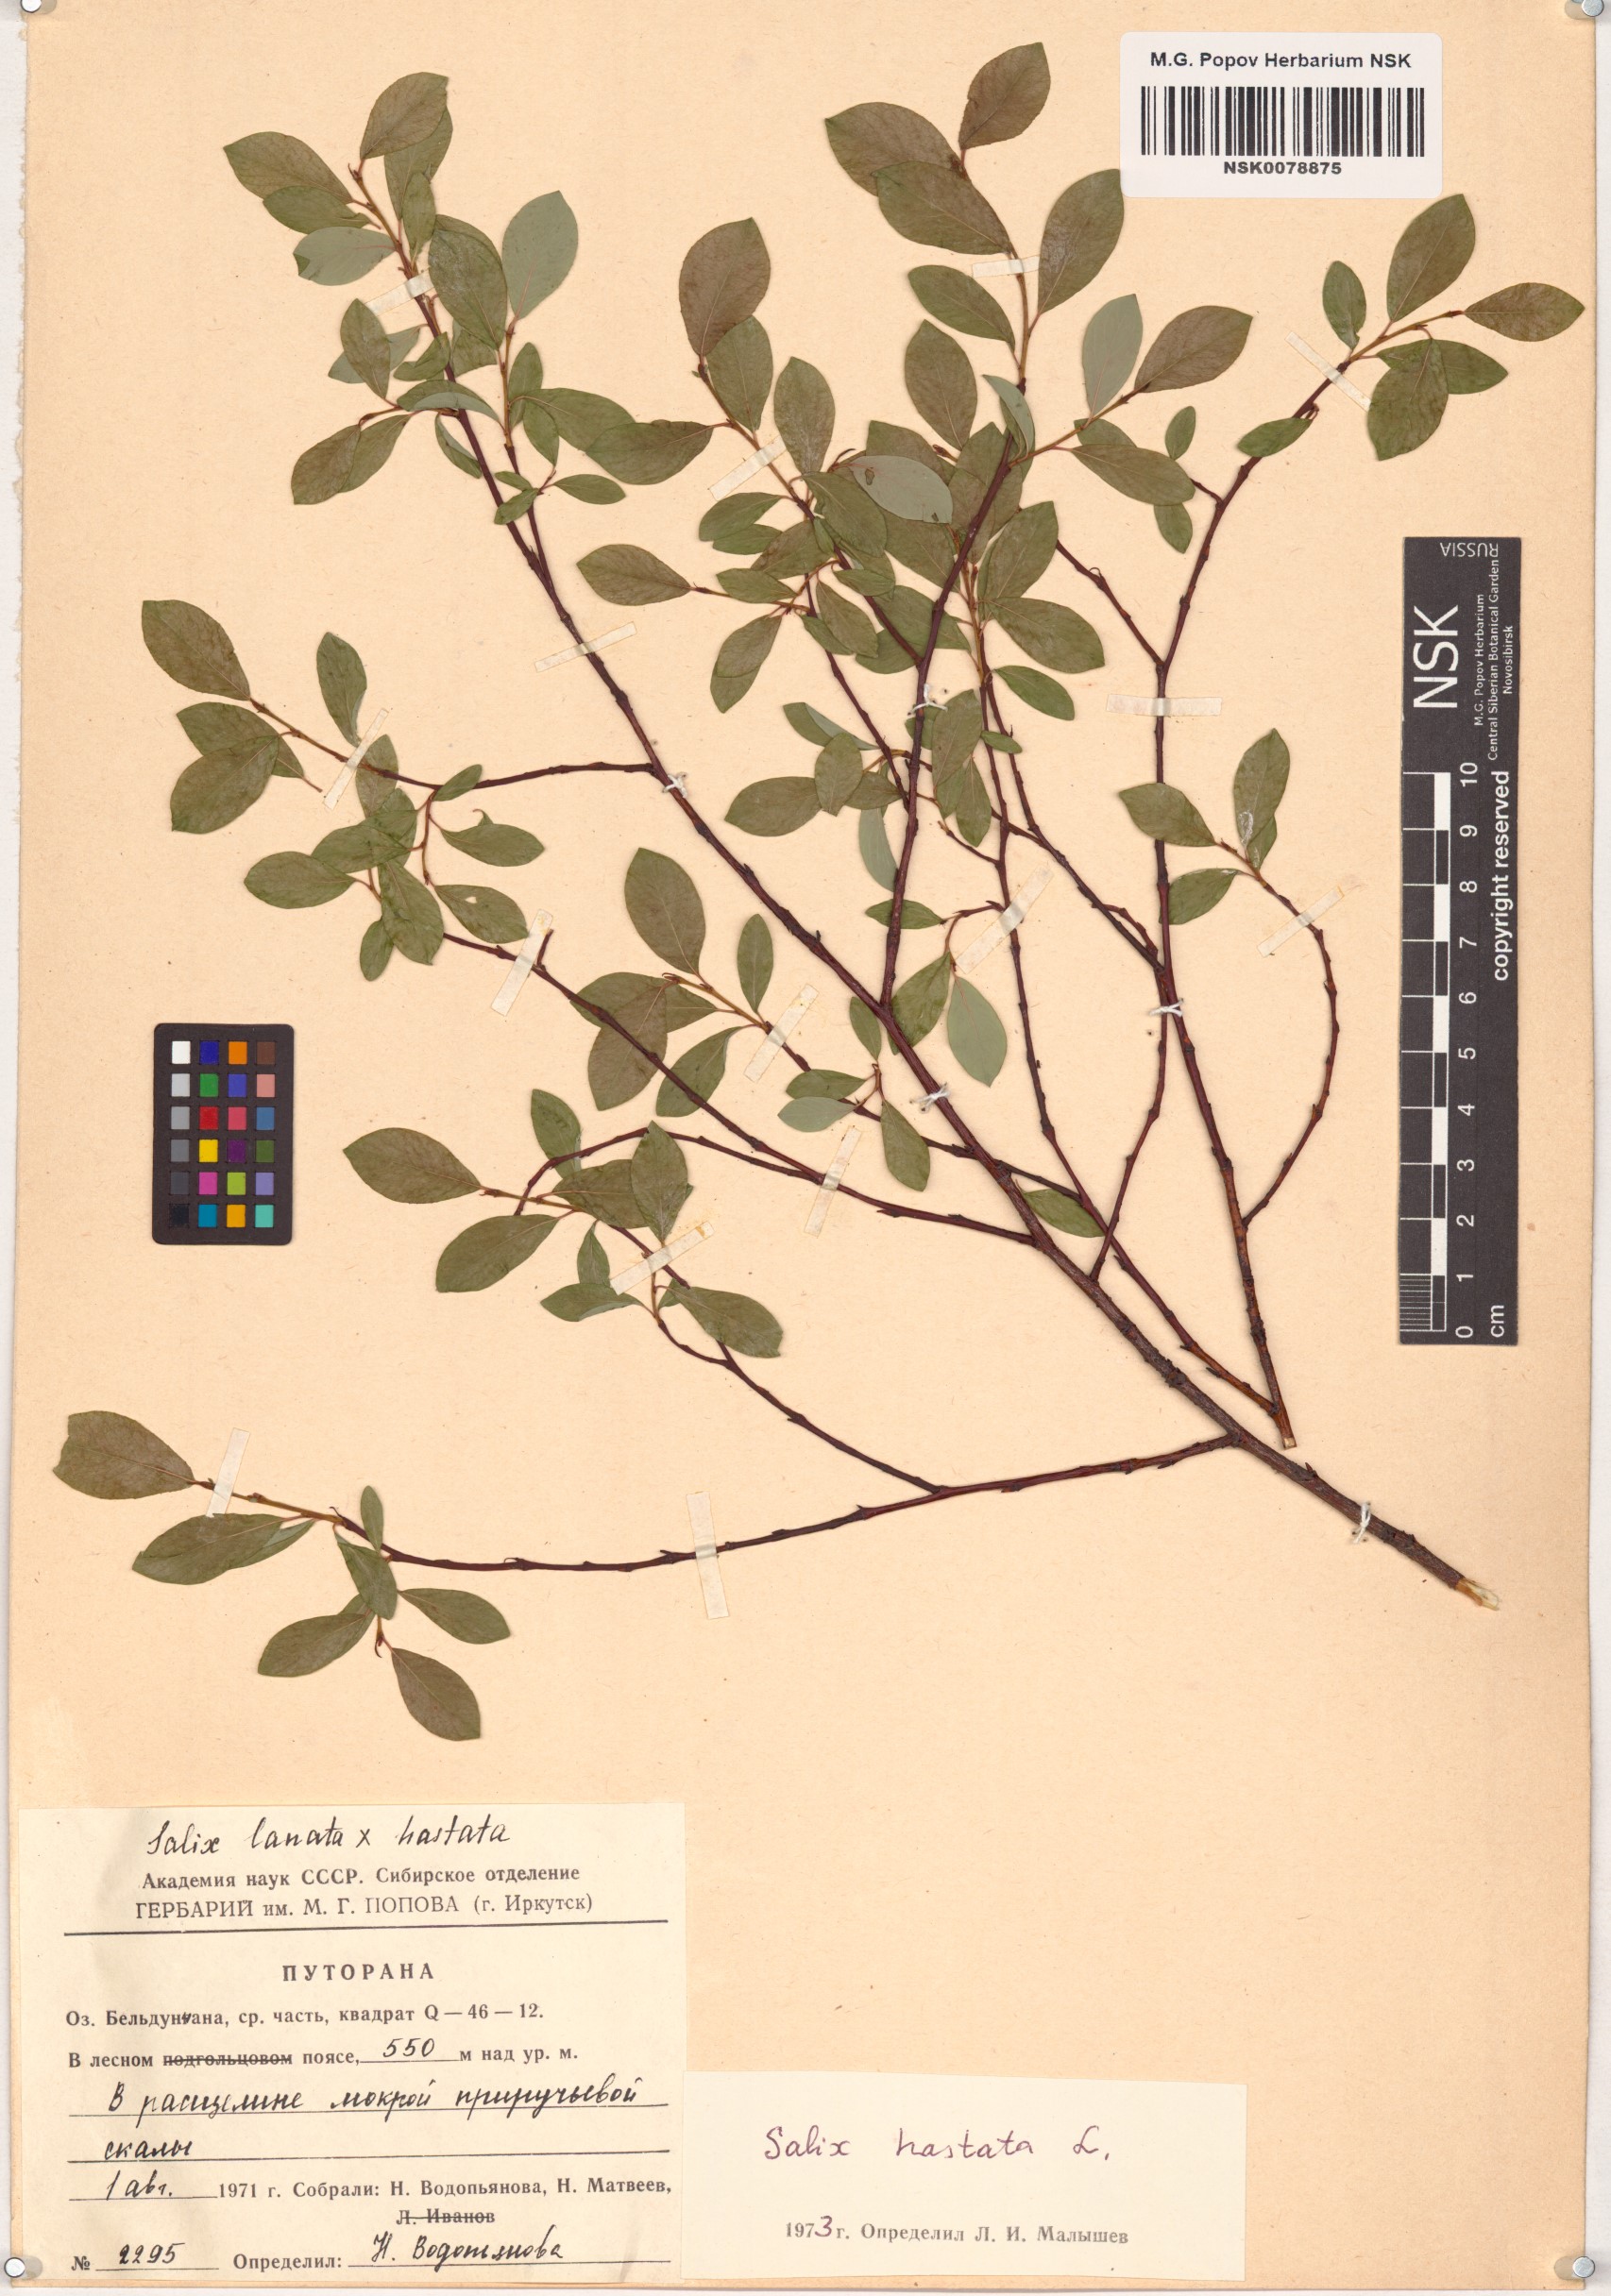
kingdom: Plantae
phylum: Tracheophyta
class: Magnoliopsida
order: Malpighiales
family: Salicaceae
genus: Salix
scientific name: Salix hastata
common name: Halberd willow
